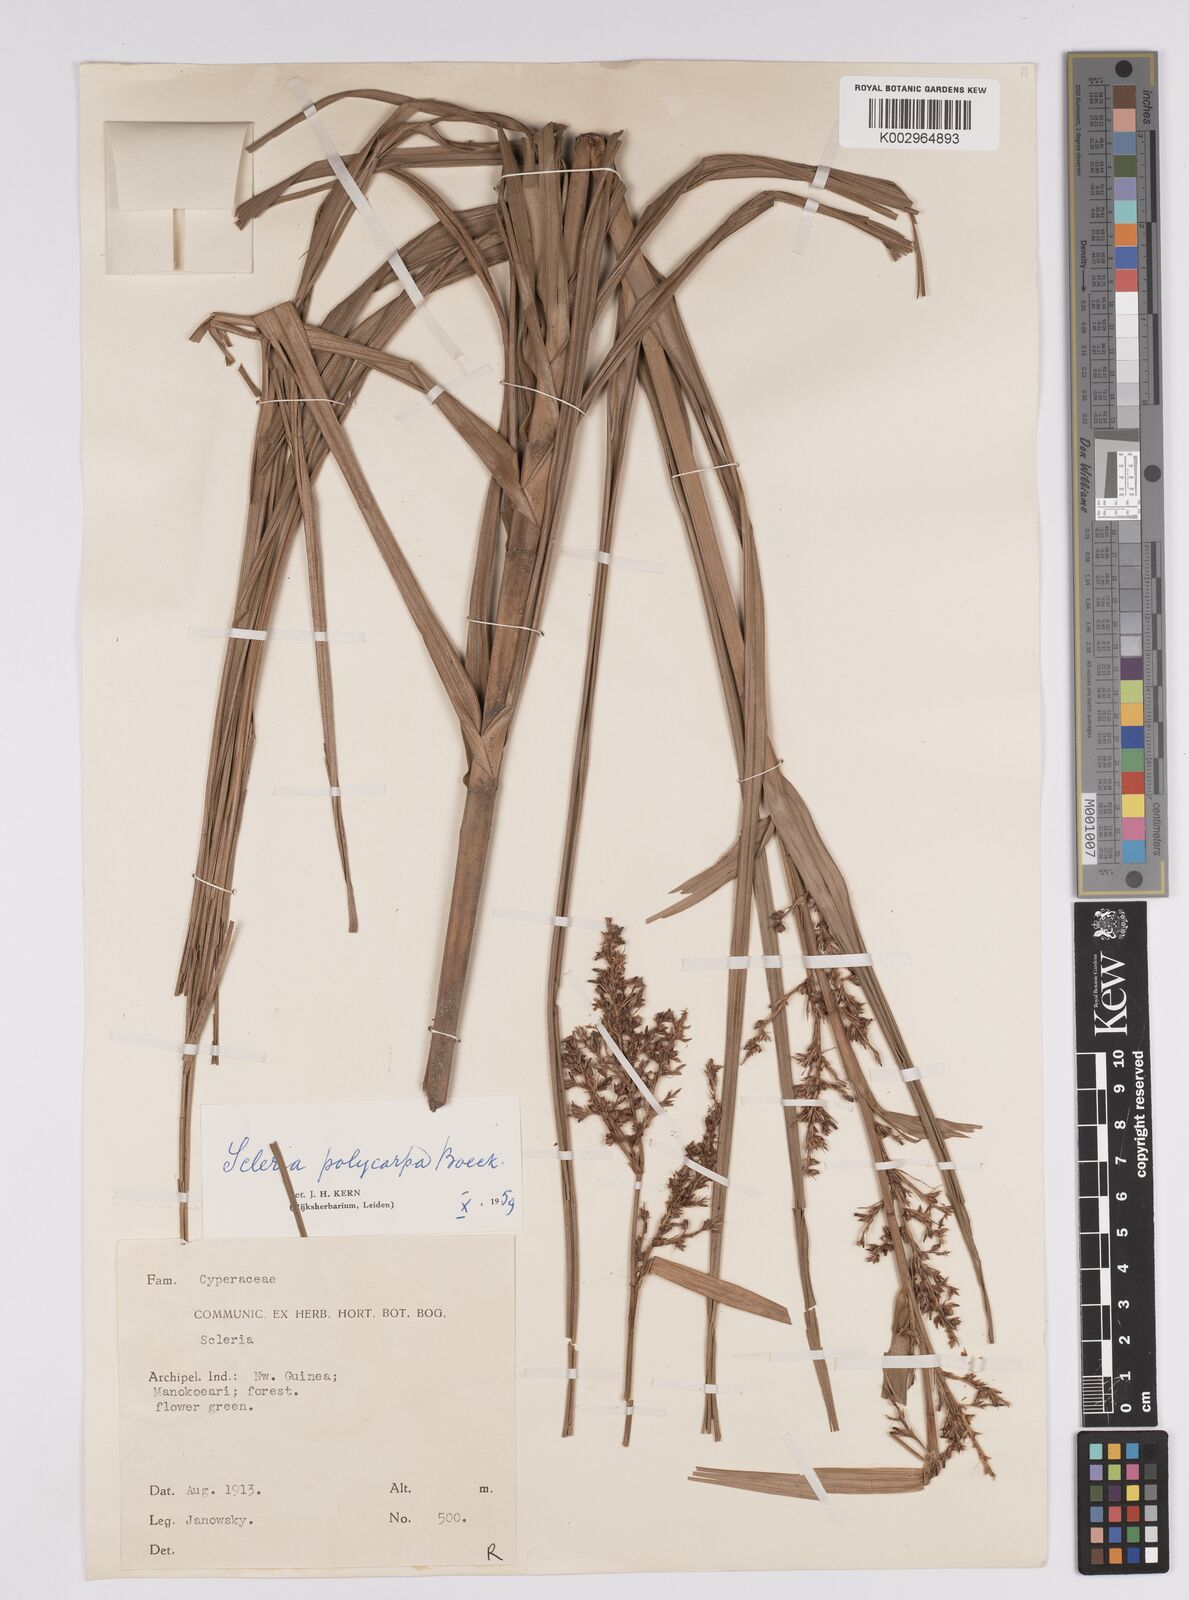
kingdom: Plantae
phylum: Tracheophyta
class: Liliopsida
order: Poales
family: Cyperaceae
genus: Scleria
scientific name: Scleria polycarpa
